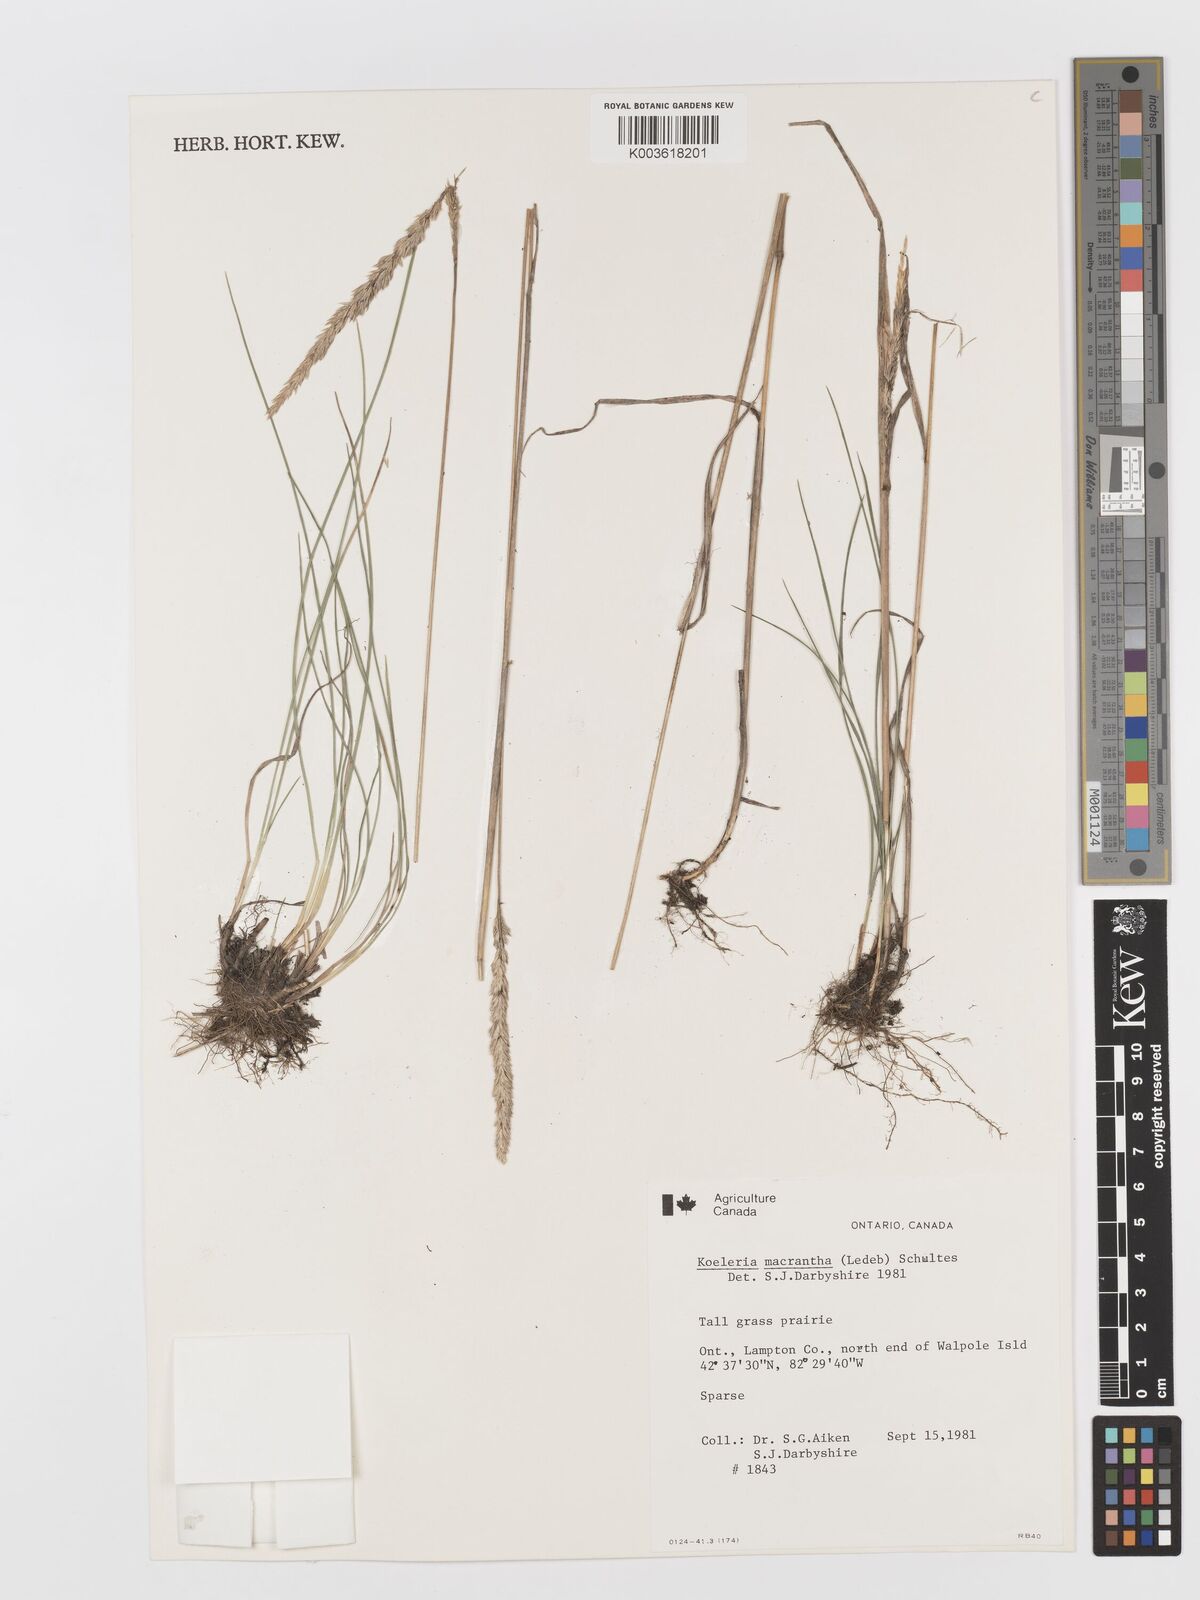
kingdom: Plantae
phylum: Tracheophyta
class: Liliopsida
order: Poales
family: Poaceae
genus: Koeleria
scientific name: Koeleria
